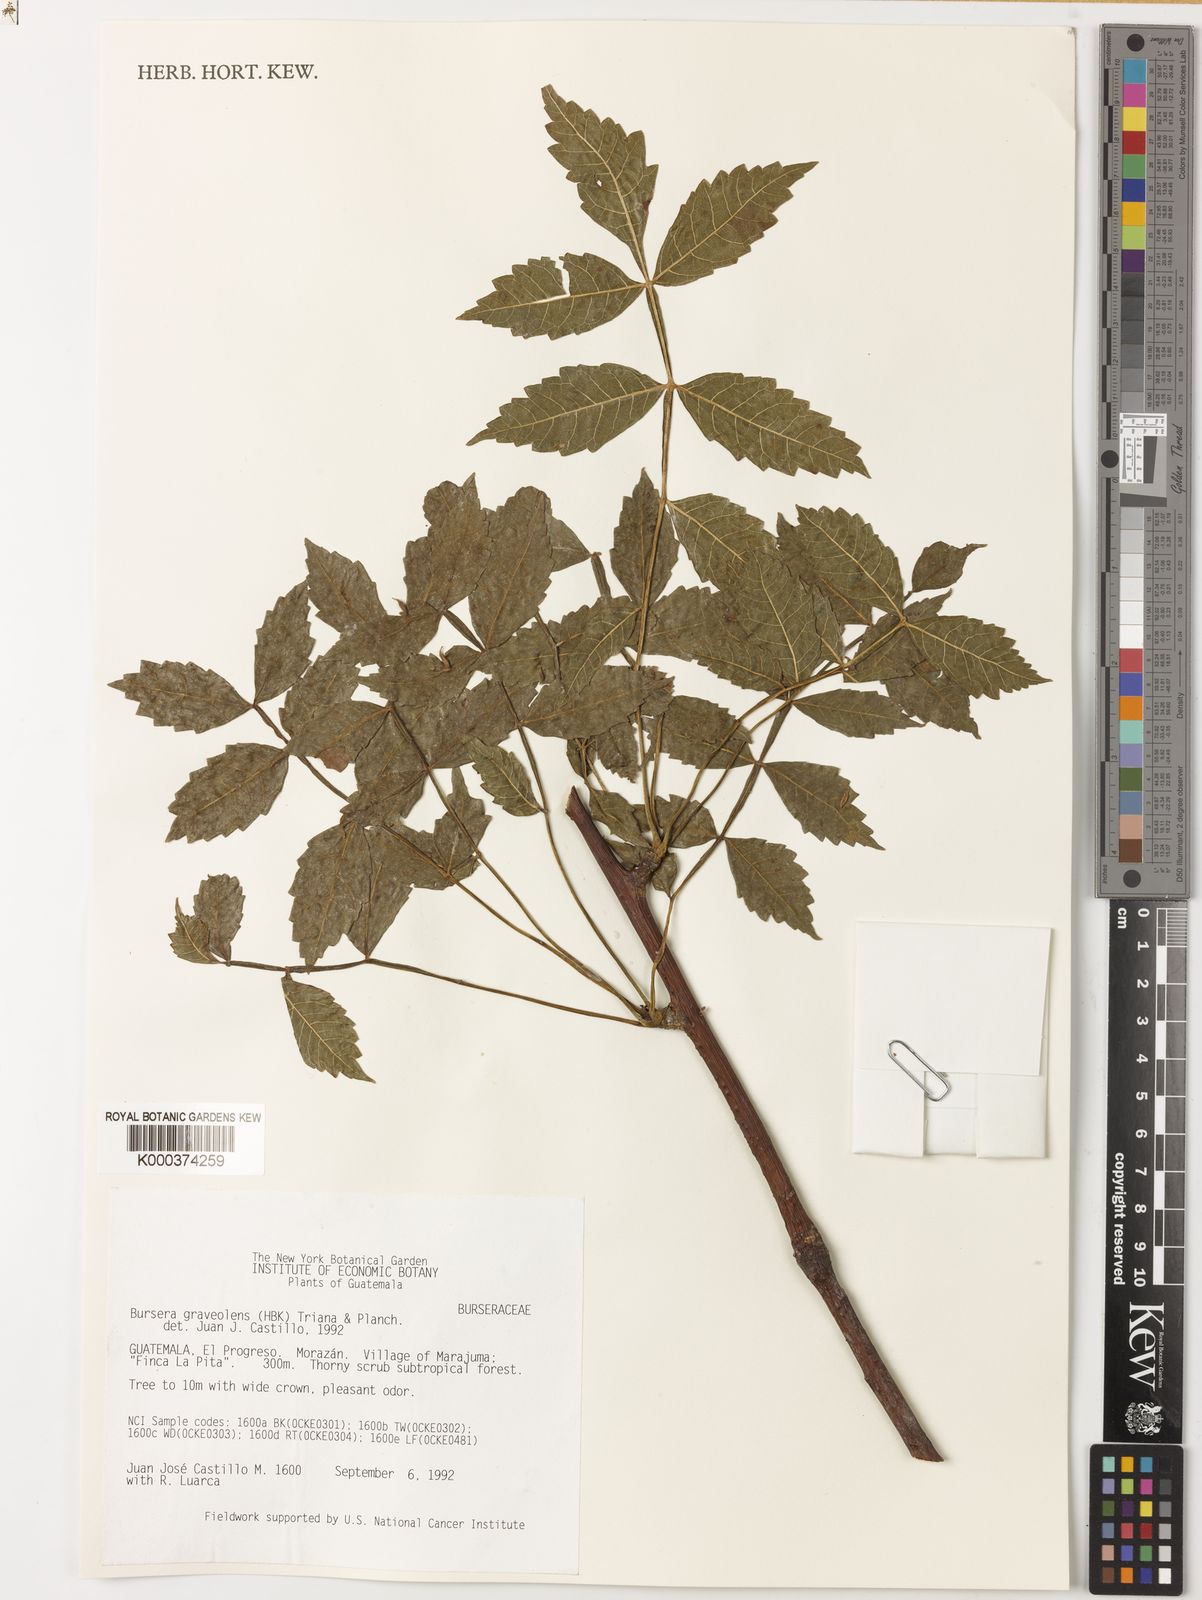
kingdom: Plantae
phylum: Tracheophyta
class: Magnoliopsida
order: Sapindales
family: Burseraceae
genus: Bursera
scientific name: Bursera graveolens
